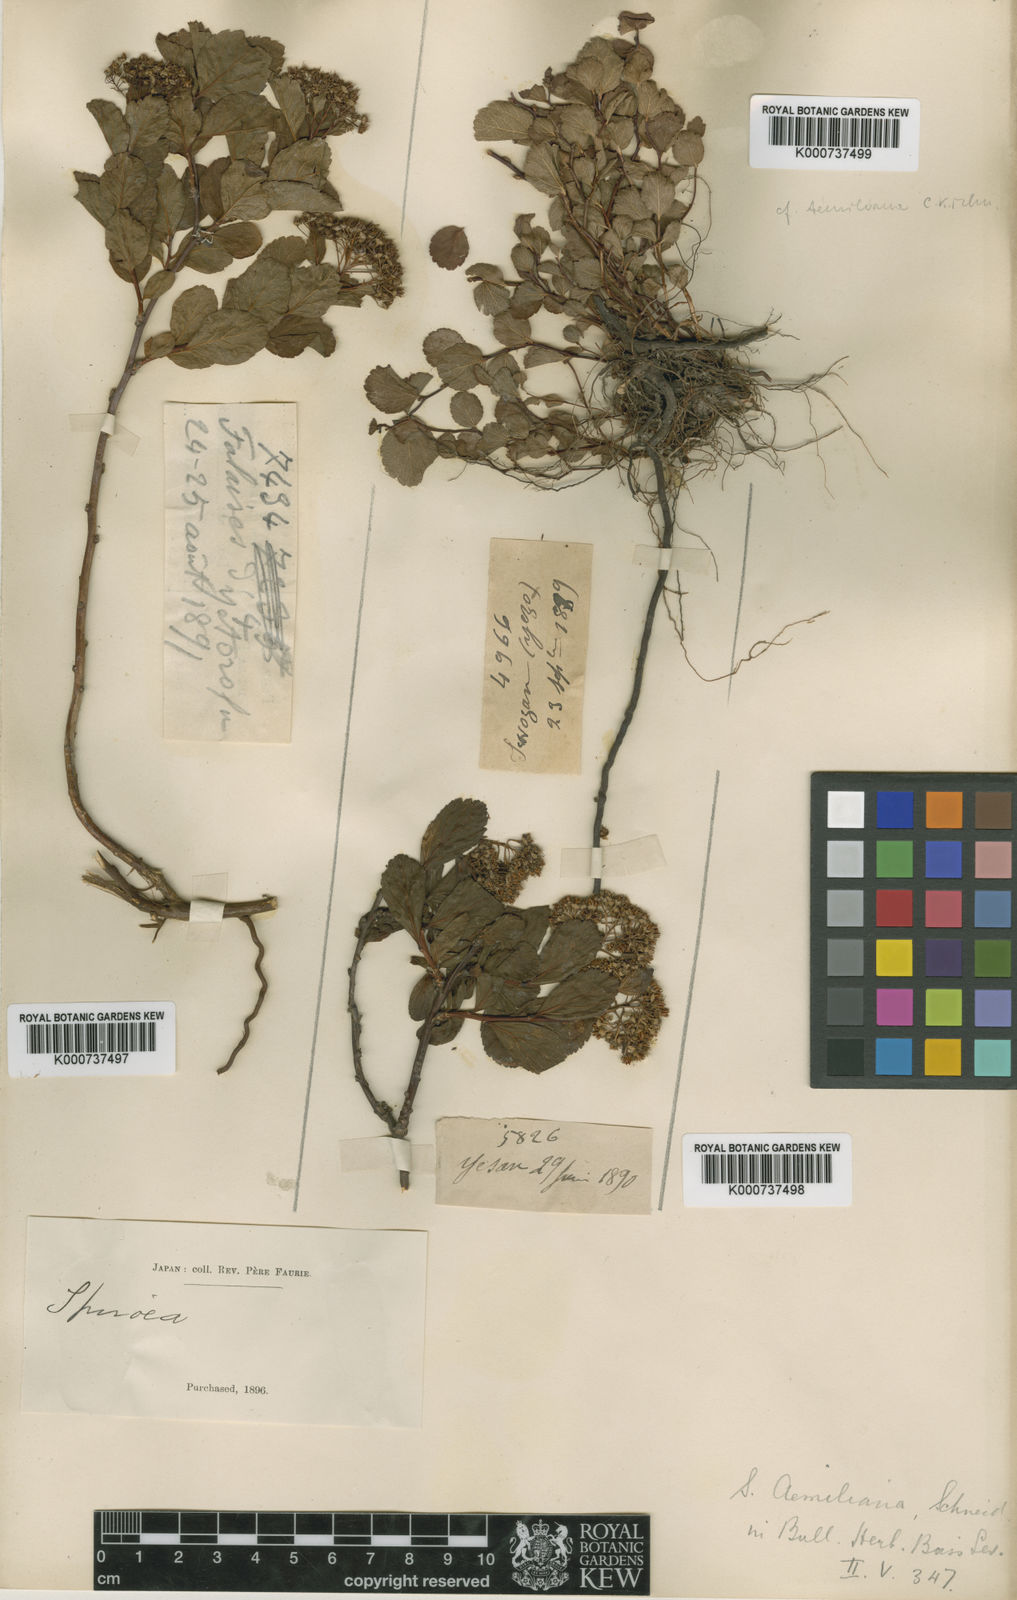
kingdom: Plantae
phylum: Tracheophyta
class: Magnoliopsida
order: Rosales
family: Rosaceae
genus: Spiraea
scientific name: Spiraea betulifolia
